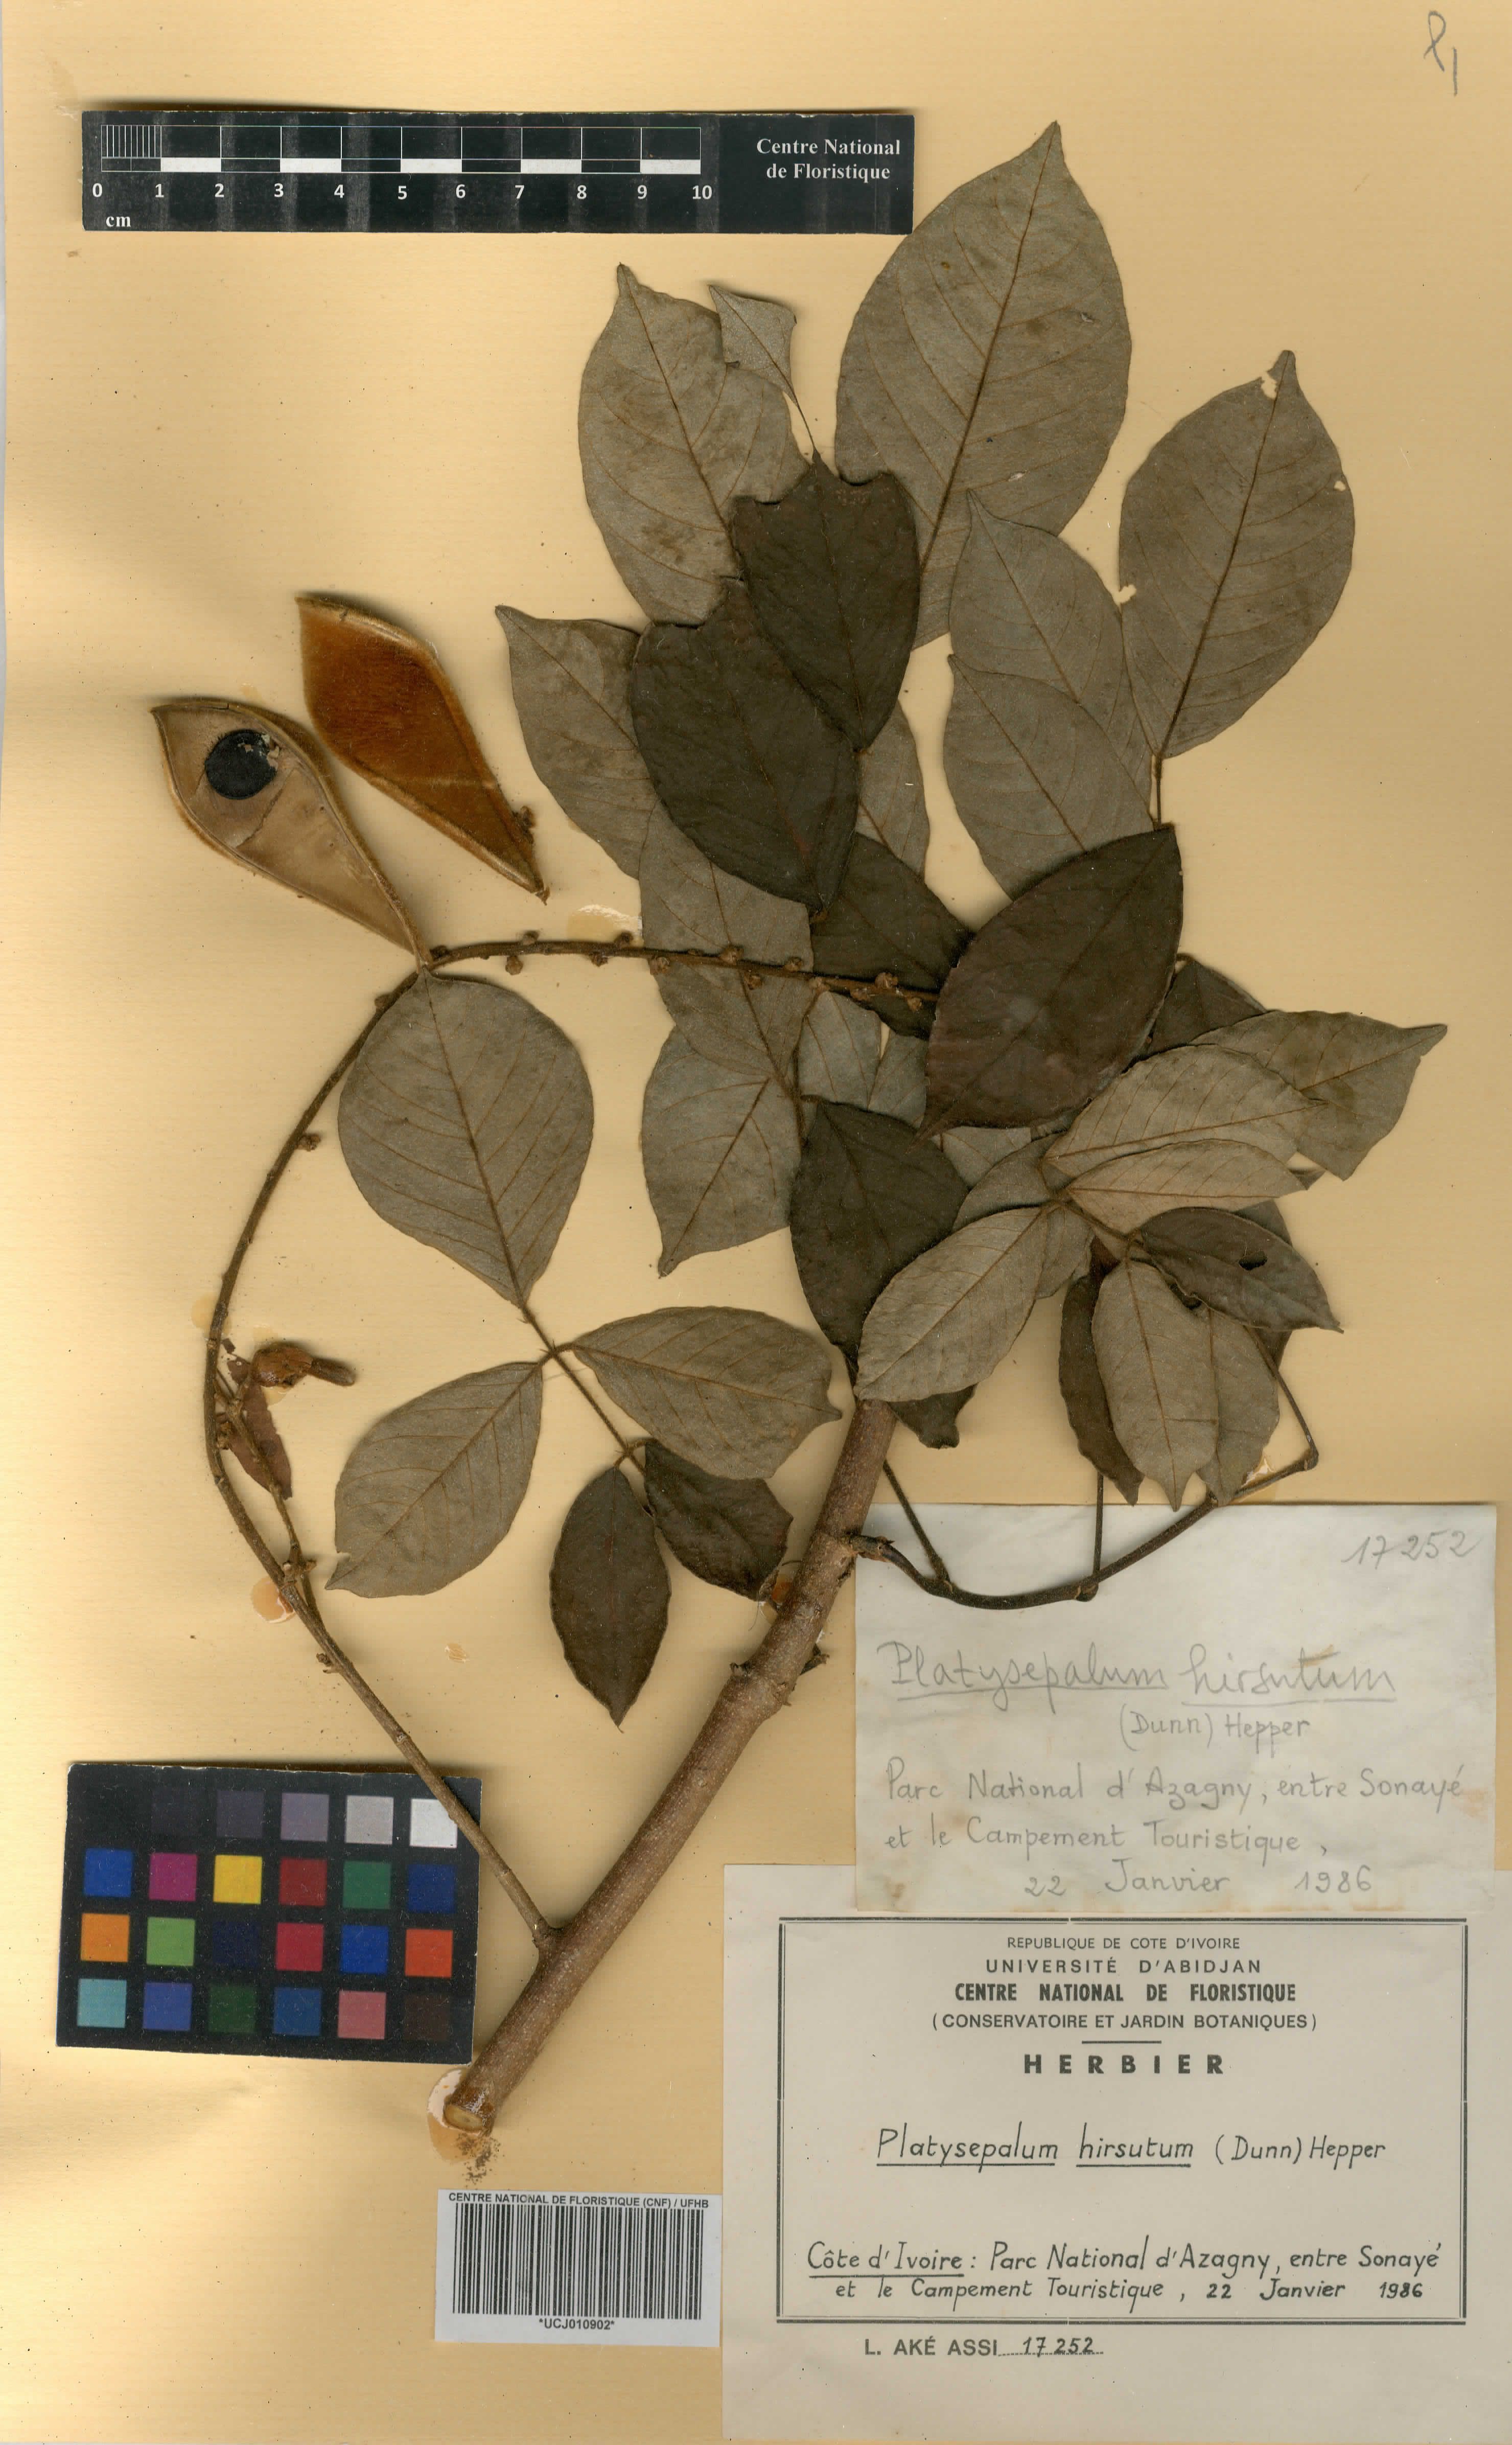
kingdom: Plantae
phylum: Tracheophyta
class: Magnoliopsida
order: Fabales
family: Fabaceae
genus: Platysepalum
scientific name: Platysepalum hirsutum
